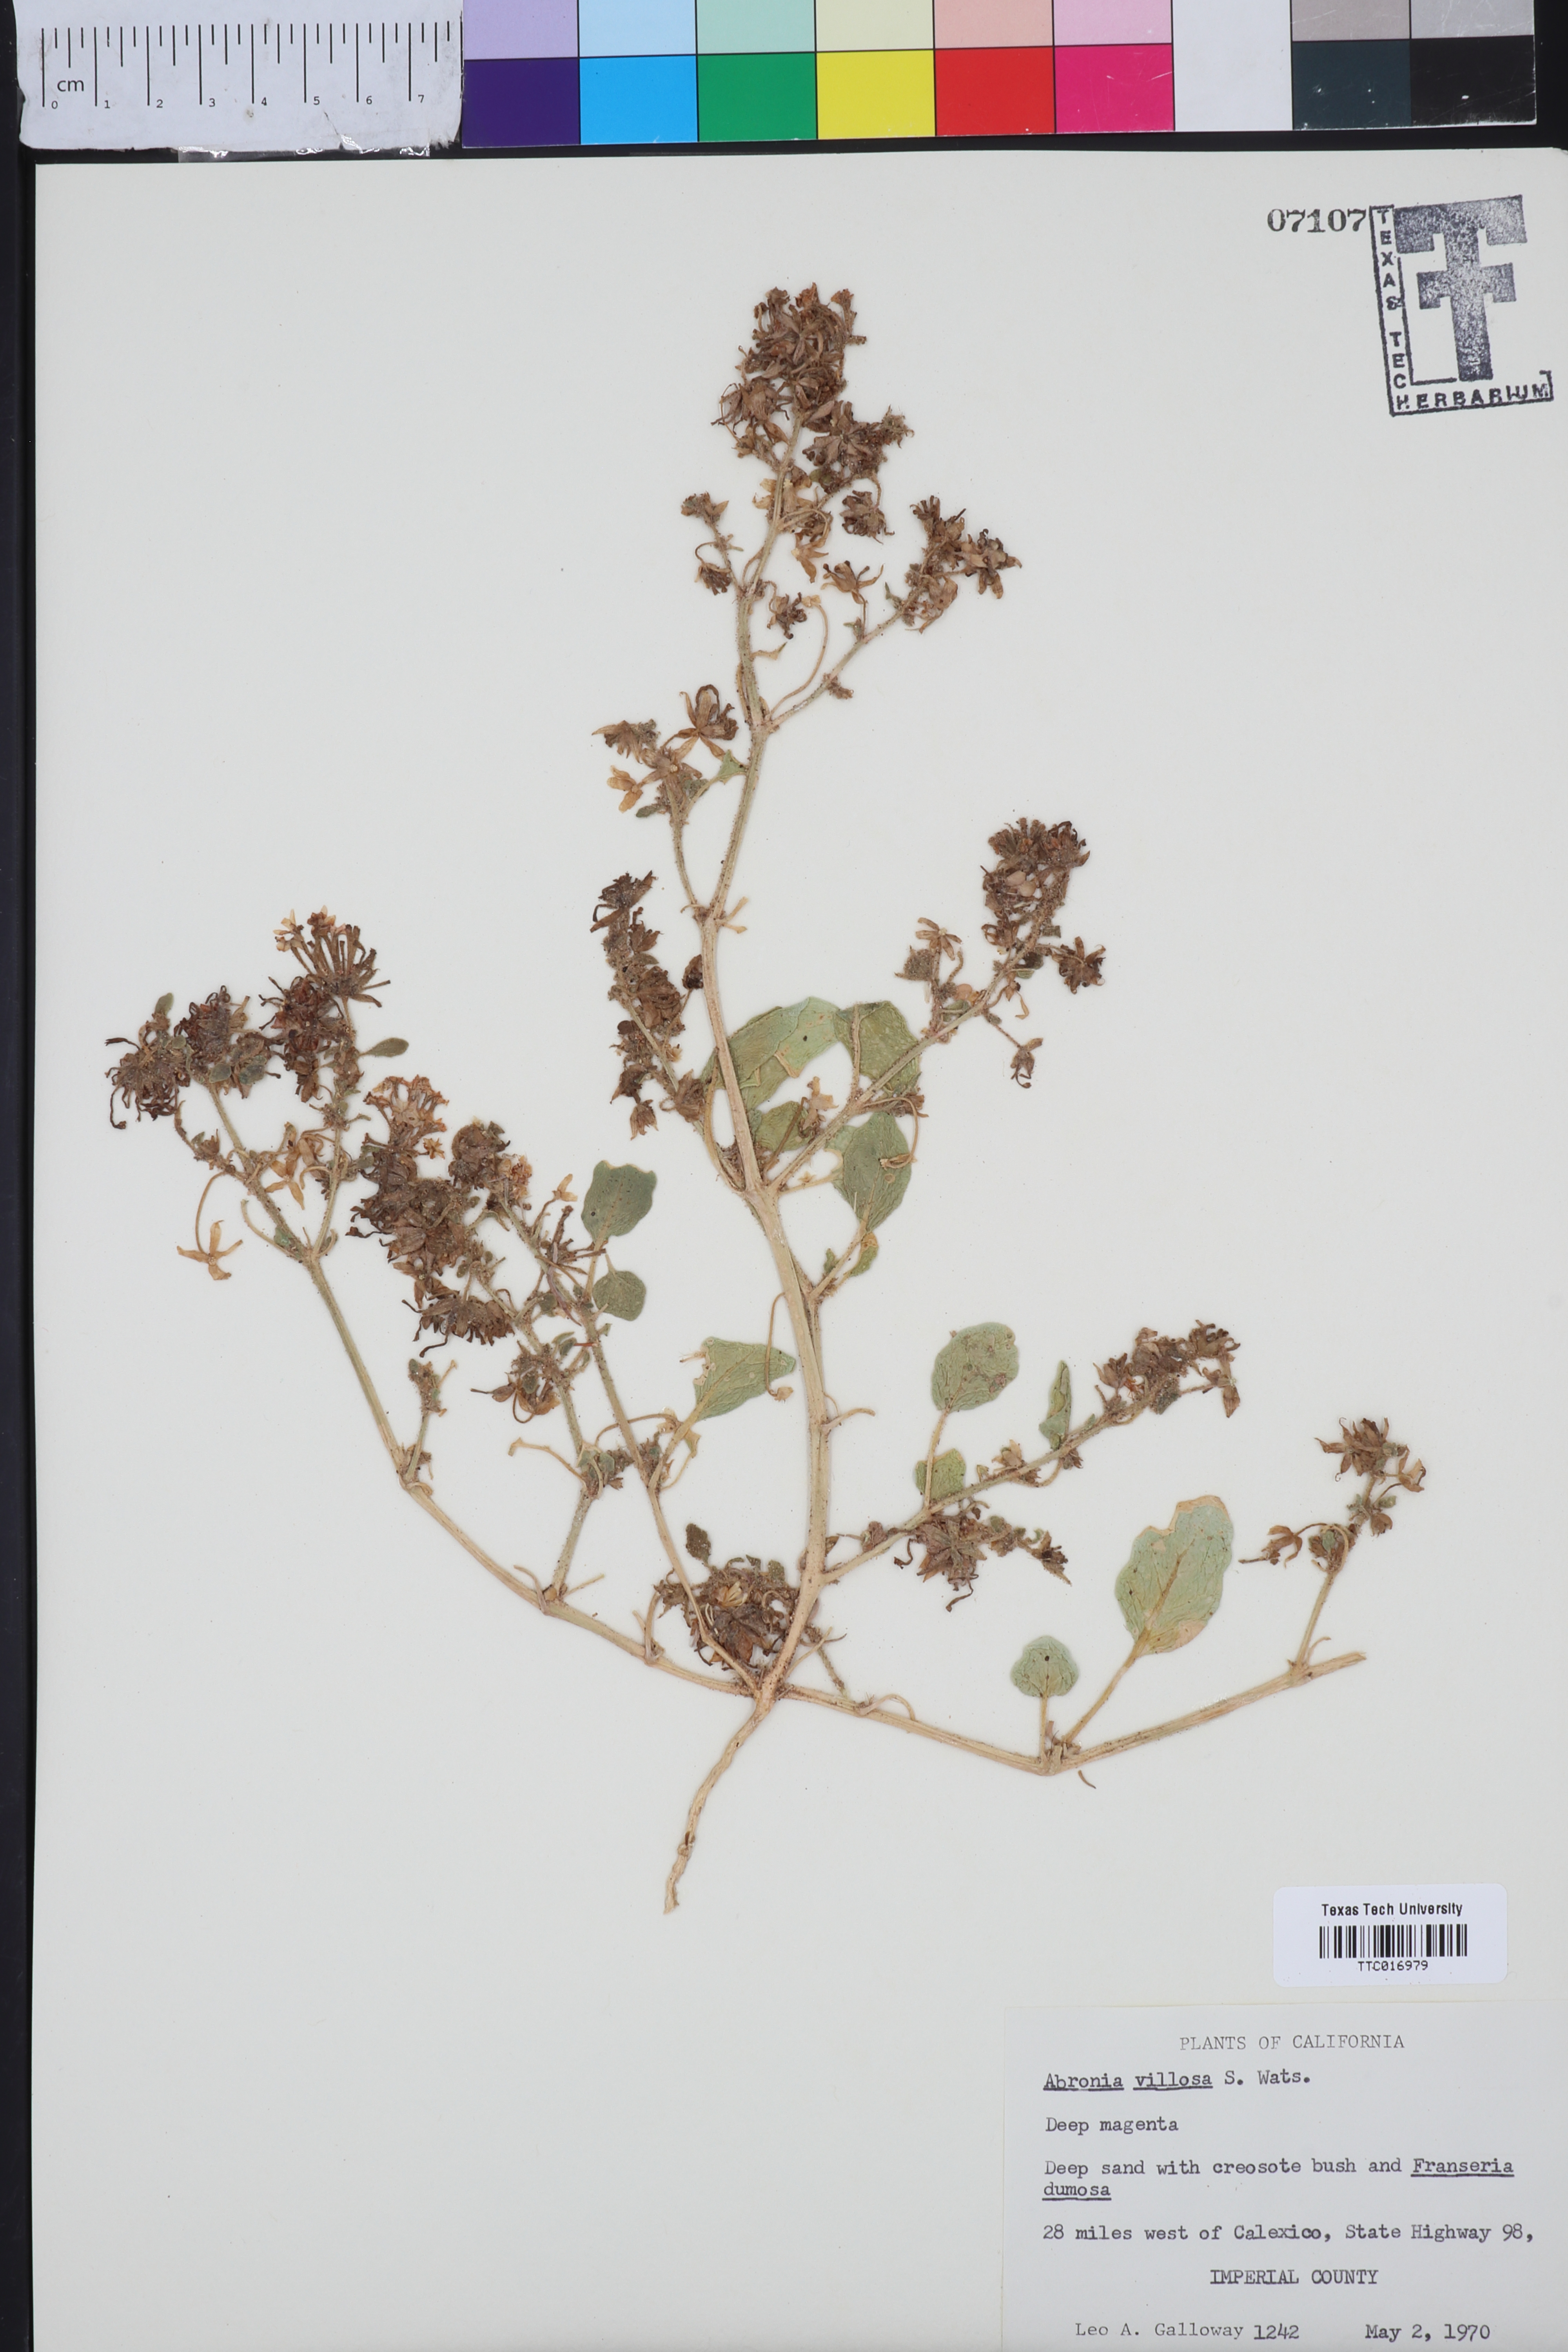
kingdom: Plantae
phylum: Tracheophyta
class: Magnoliopsida
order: Caryophyllales
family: Nyctaginaceae
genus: Abronia
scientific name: Abronia villosa
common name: Desert sand-verbena
